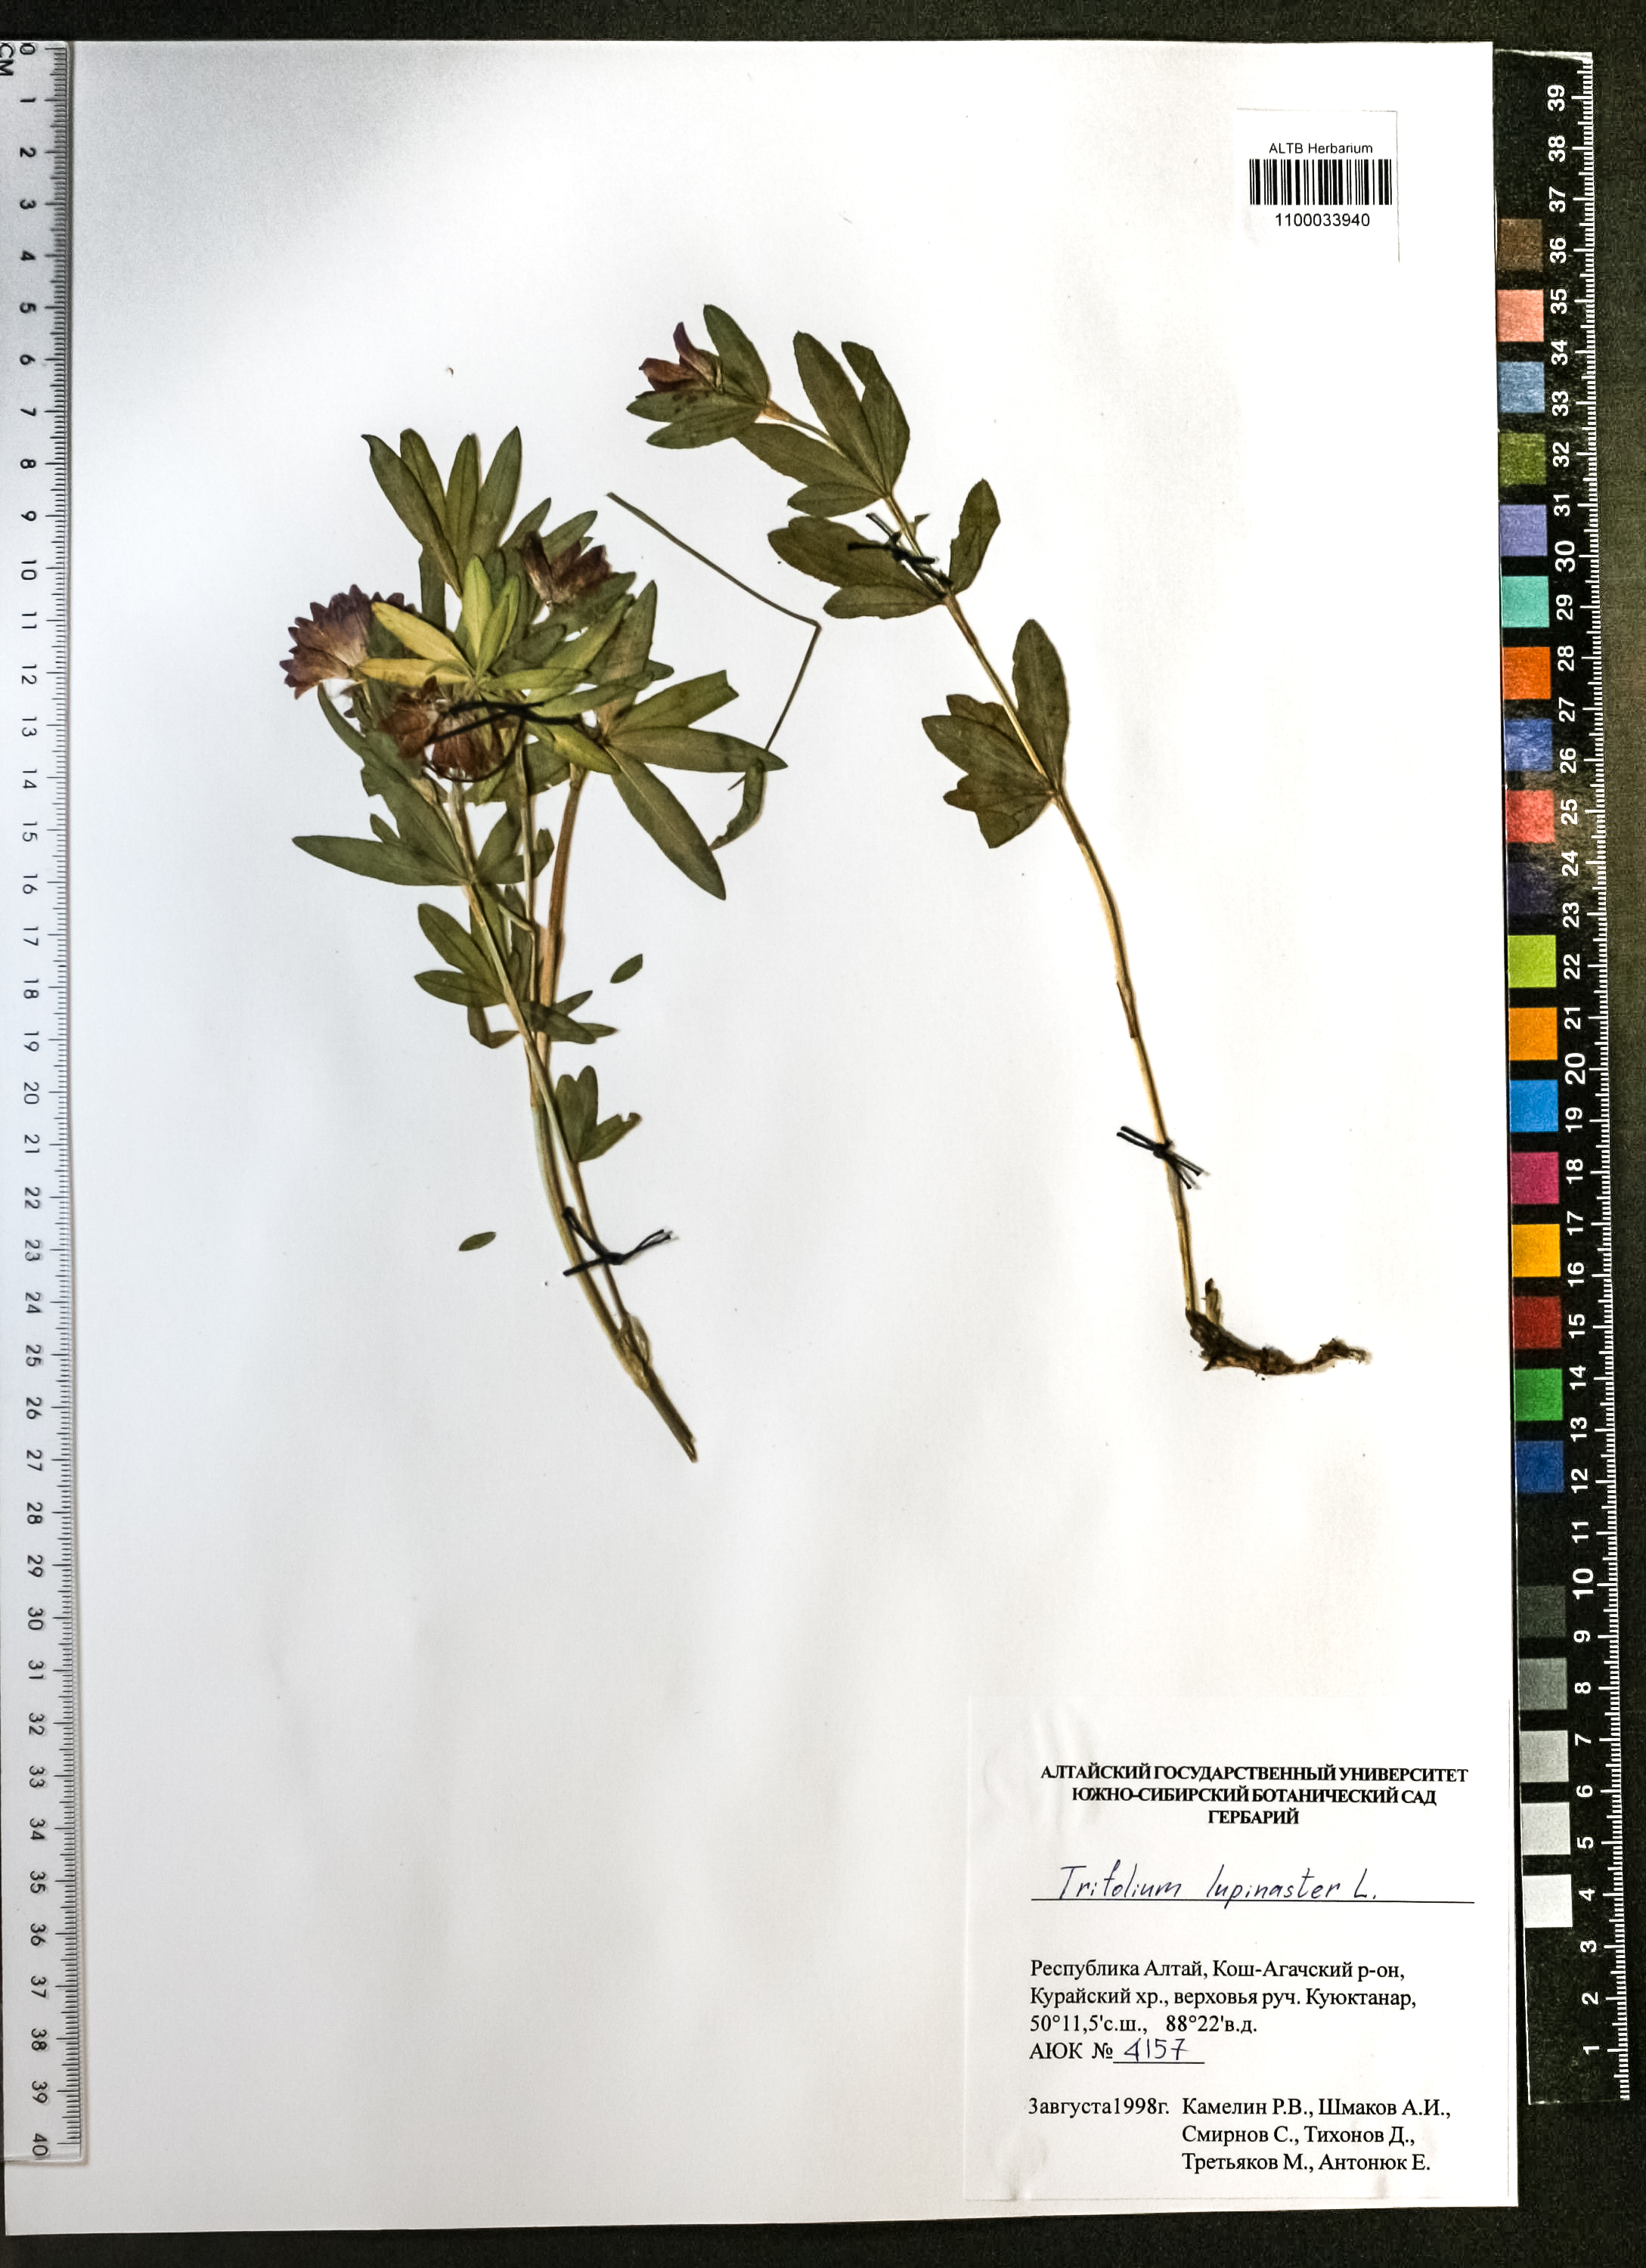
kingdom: Plantae
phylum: Tracheophyta
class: Magnoliopsida
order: Fabales
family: Fabaceae
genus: Trifolium
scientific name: Trifolium lupinaster
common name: Lupine clover
